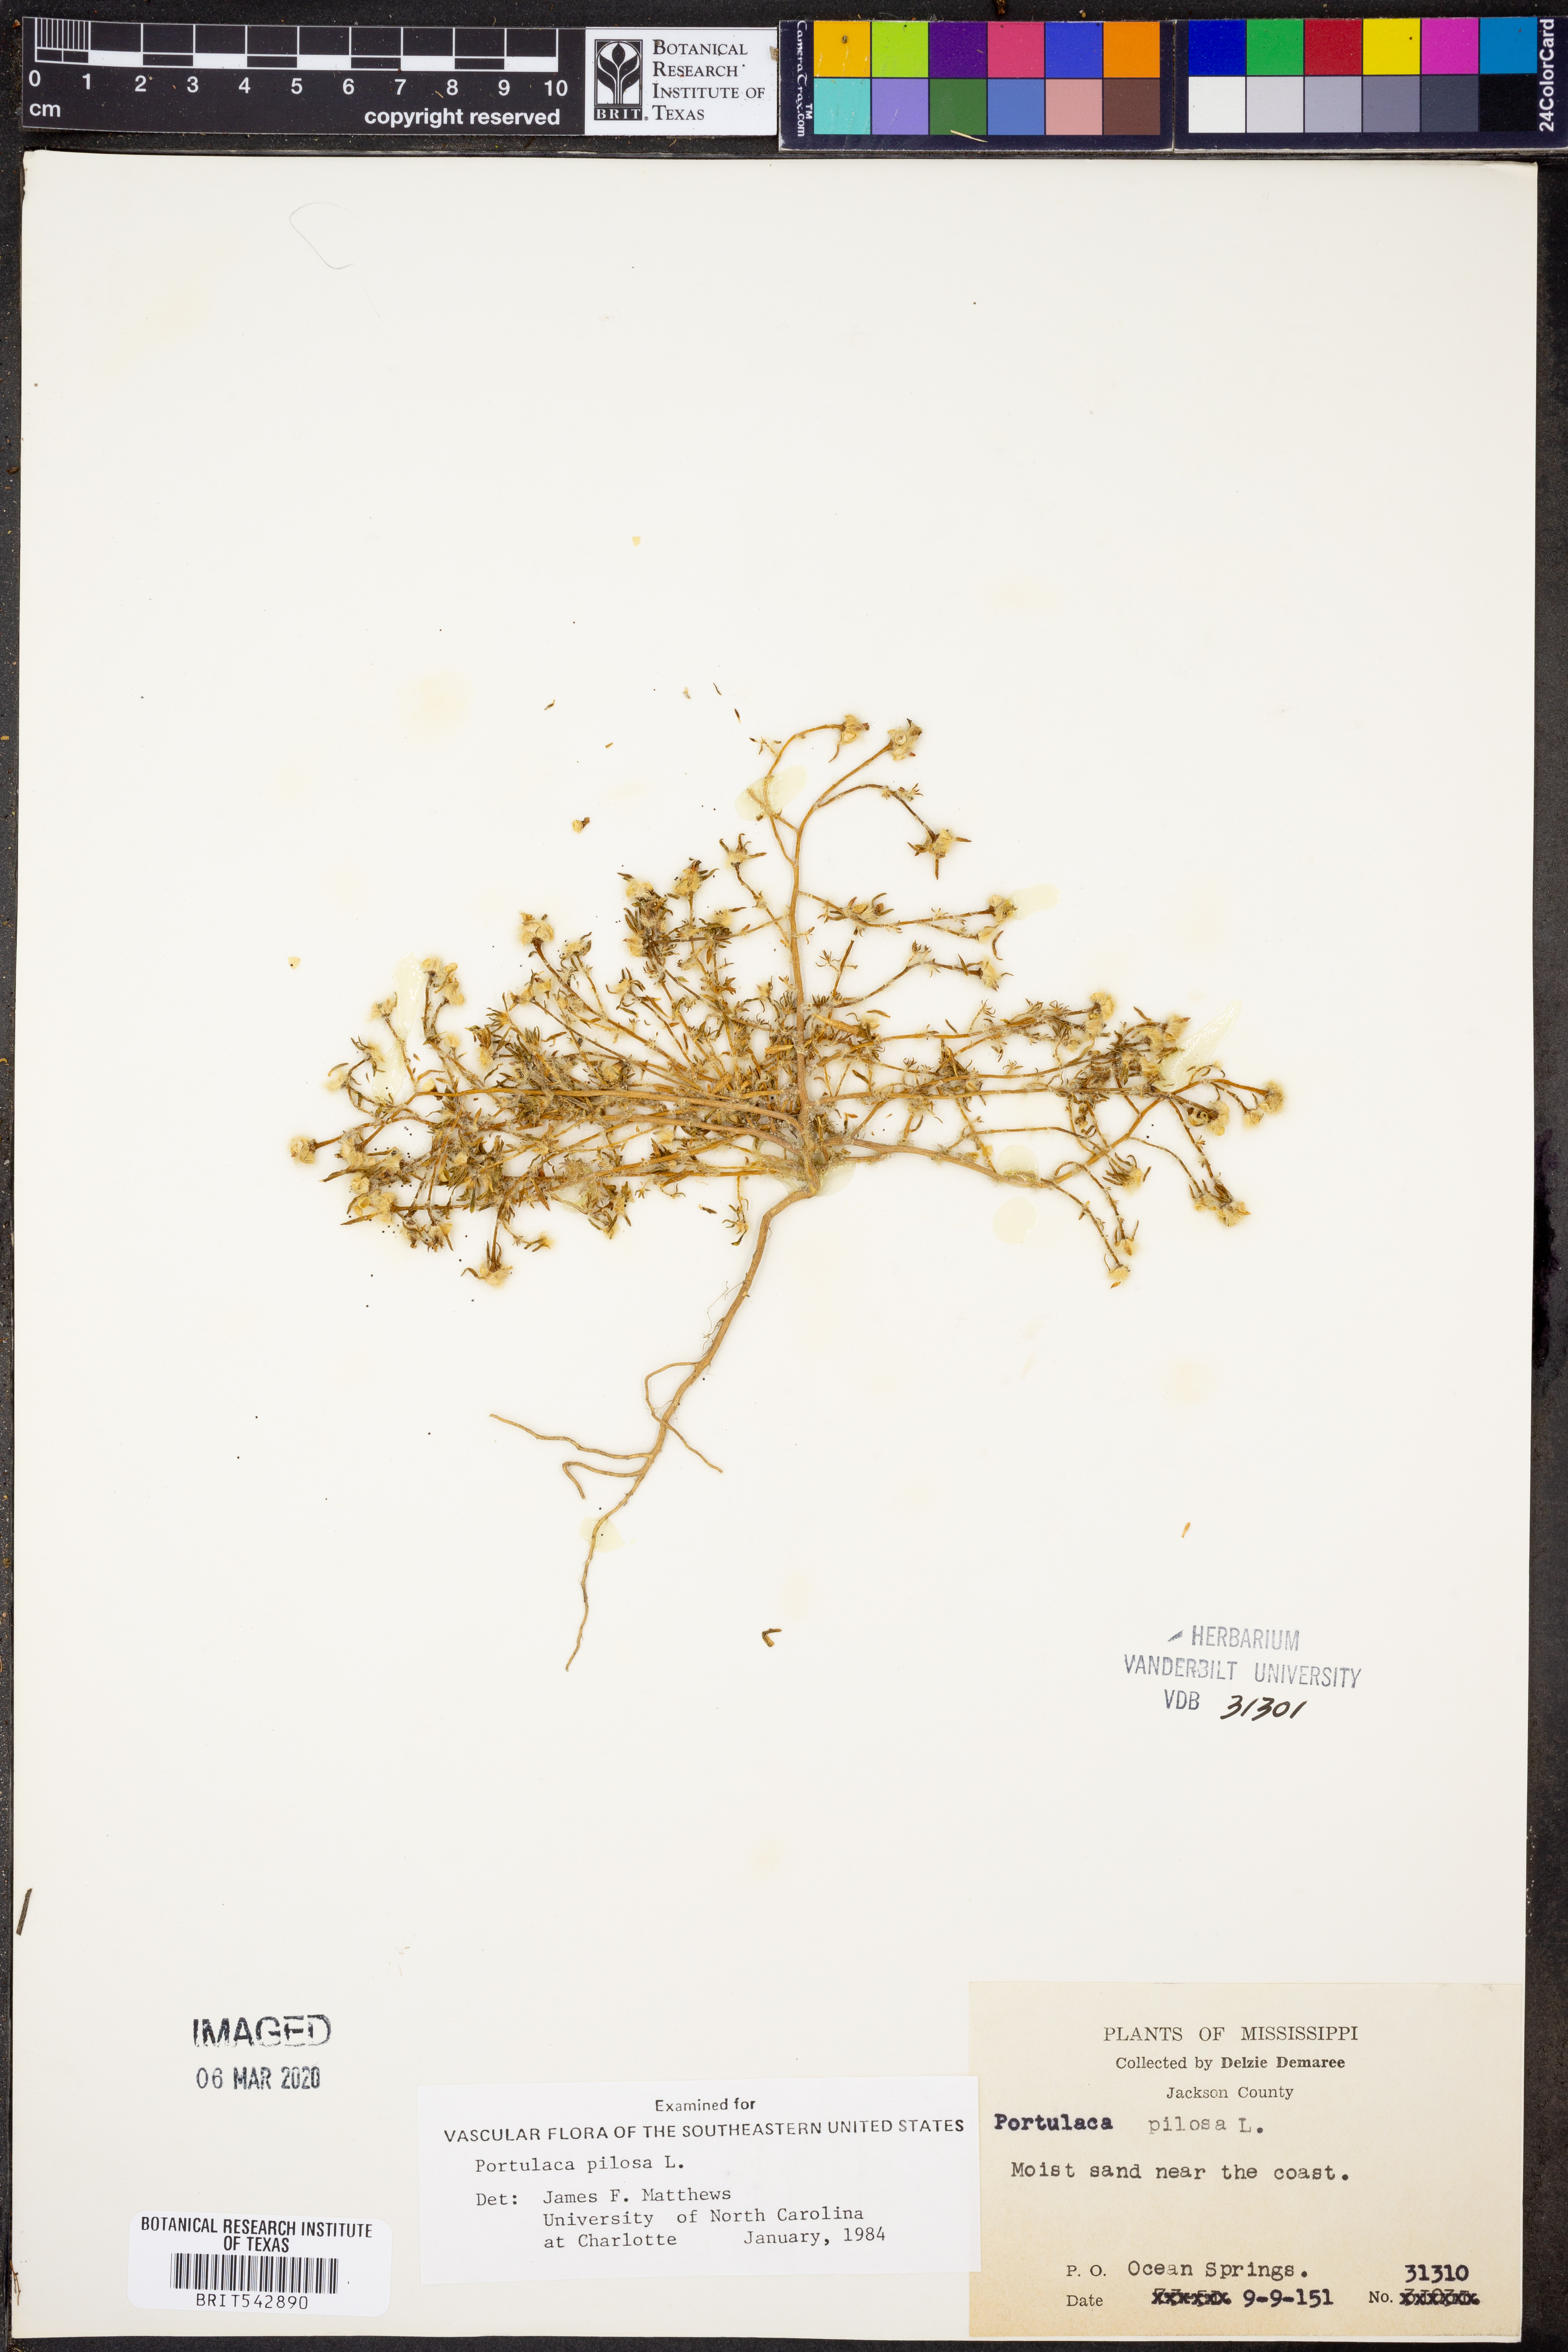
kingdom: Plantae
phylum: Tracheophyta
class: Magnoliopsida
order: Caryophyllales
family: Portulacaceae
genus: Portulaca
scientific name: Portulaca pilosa
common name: Kiss me quick
